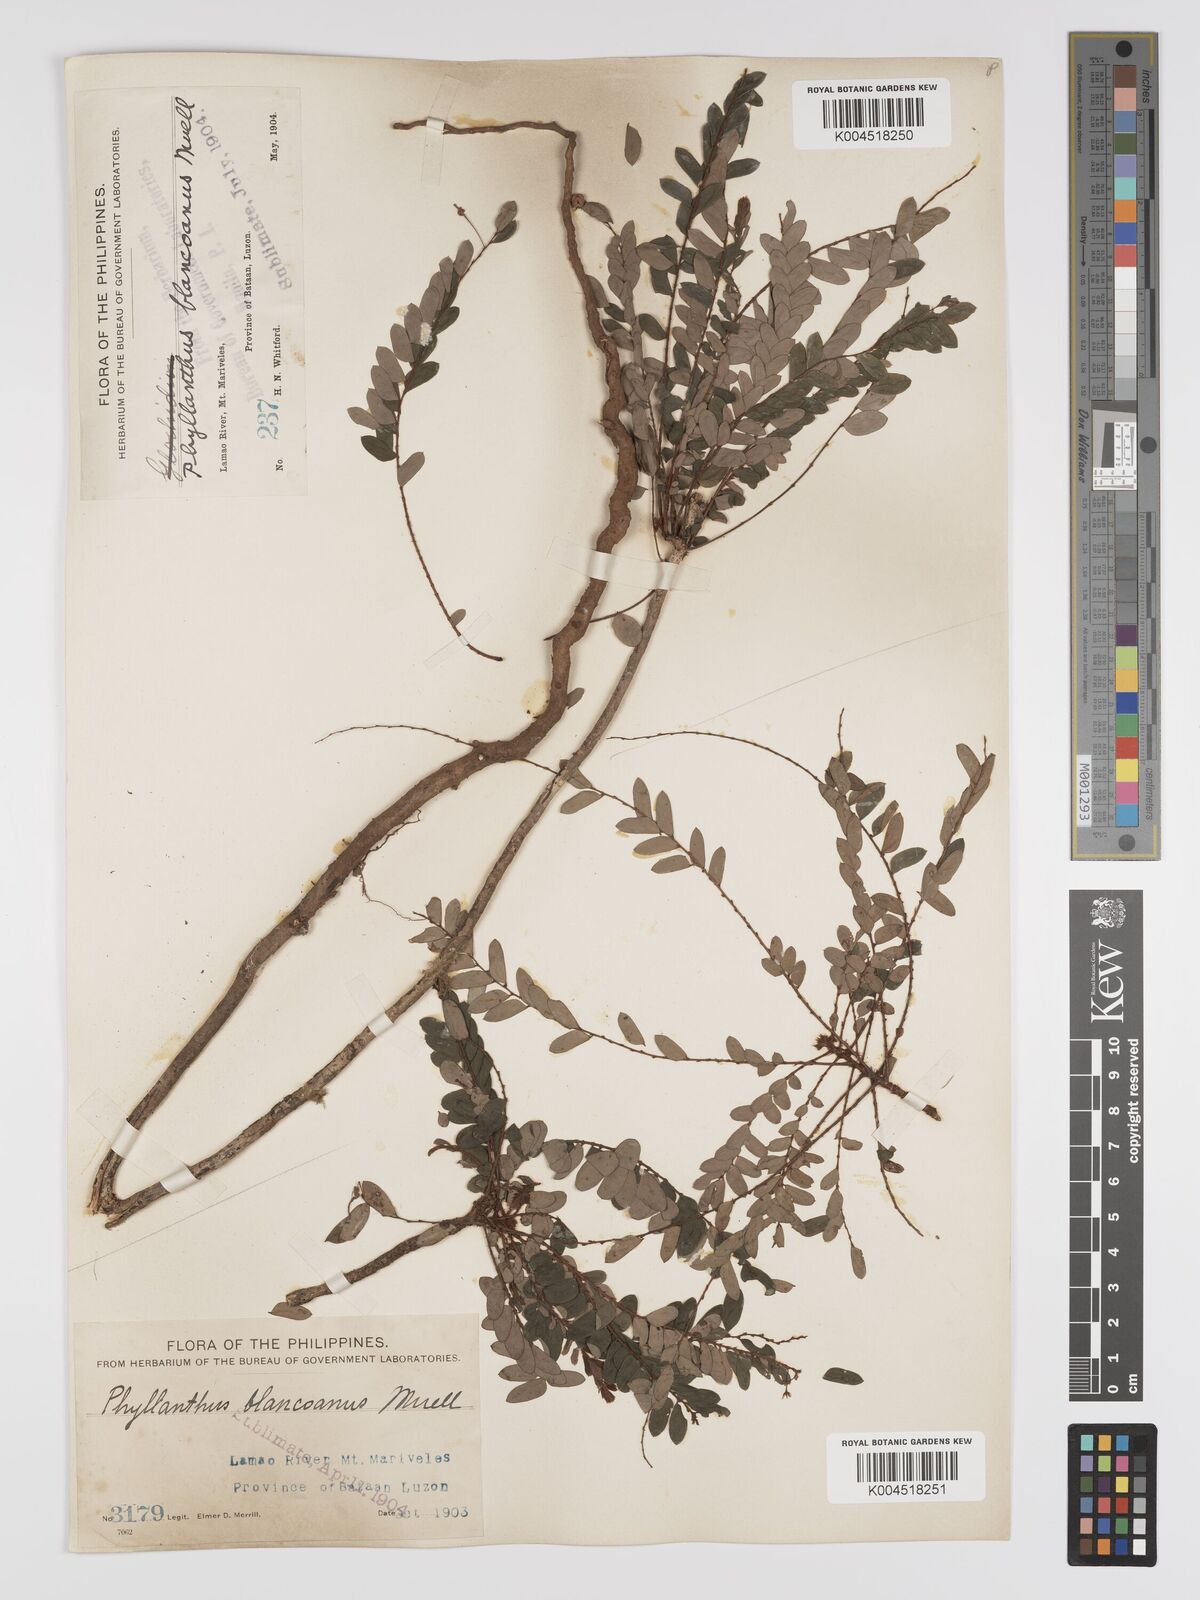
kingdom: Plantae
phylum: Tracheophyta
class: Magnoliopsida
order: Malpighiales
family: Phyllanthaceae
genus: Phyllanthus
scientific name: Phyllanthus blancoanus
